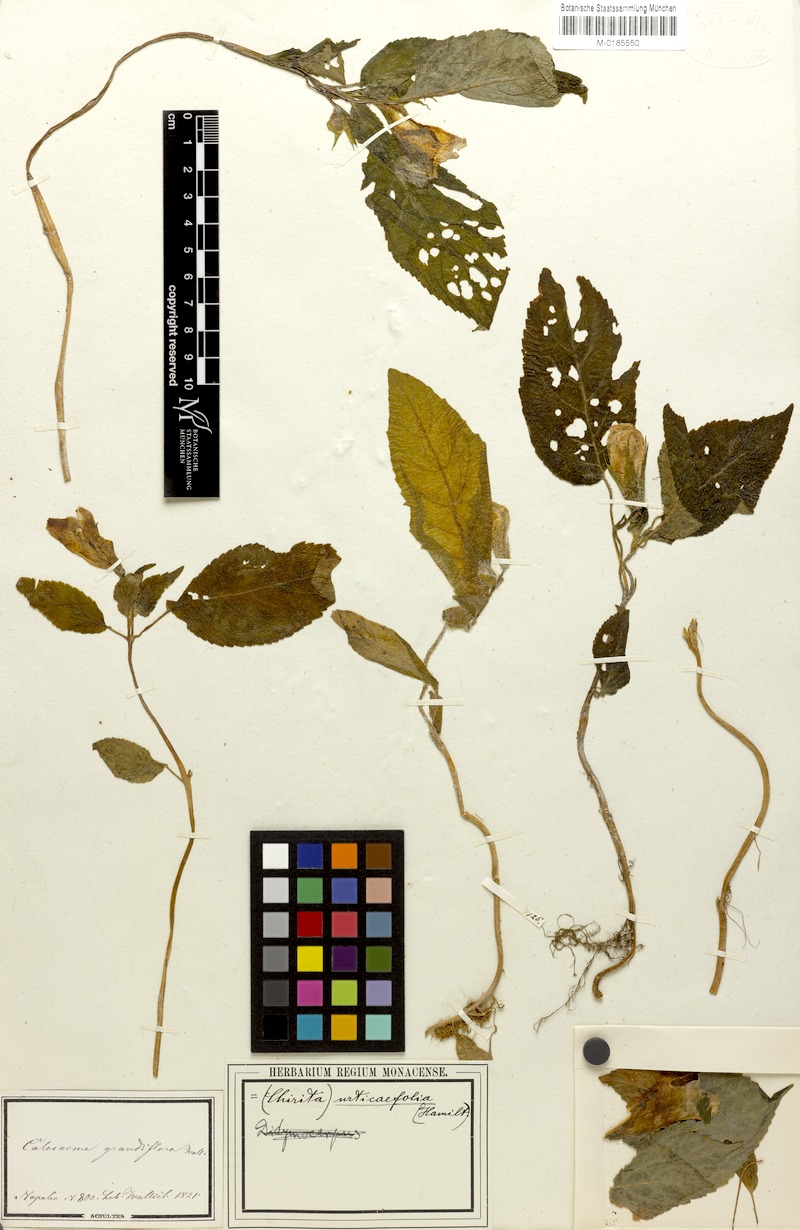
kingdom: Plantae
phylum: Tracheophyta
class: Magnoliopsida
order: Lamiales
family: Gesneriaceae
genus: Henckelia
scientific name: Henckelia urticifolia
